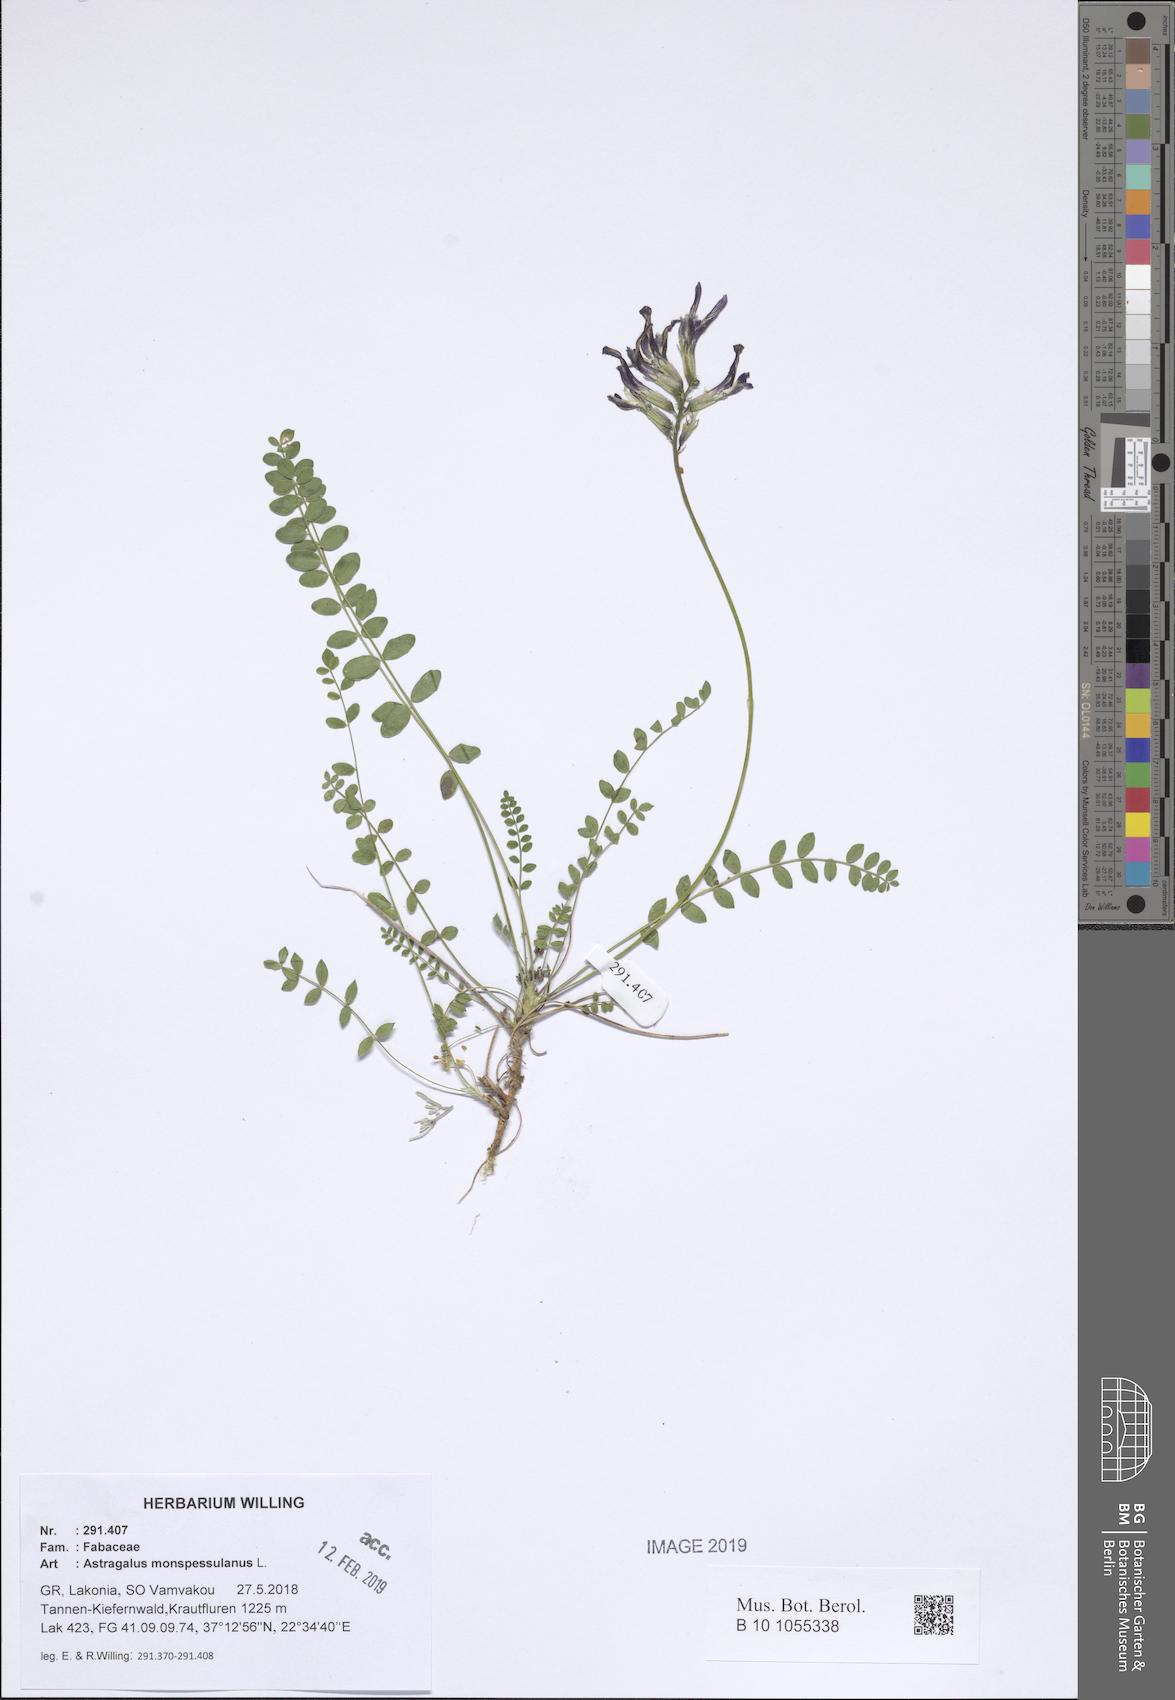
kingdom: Plantae
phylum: Tracheophyta
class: Magnoliopsida
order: Fabales
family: Fabaceae
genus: Astragalus
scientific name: Astragalus monspessulanus
